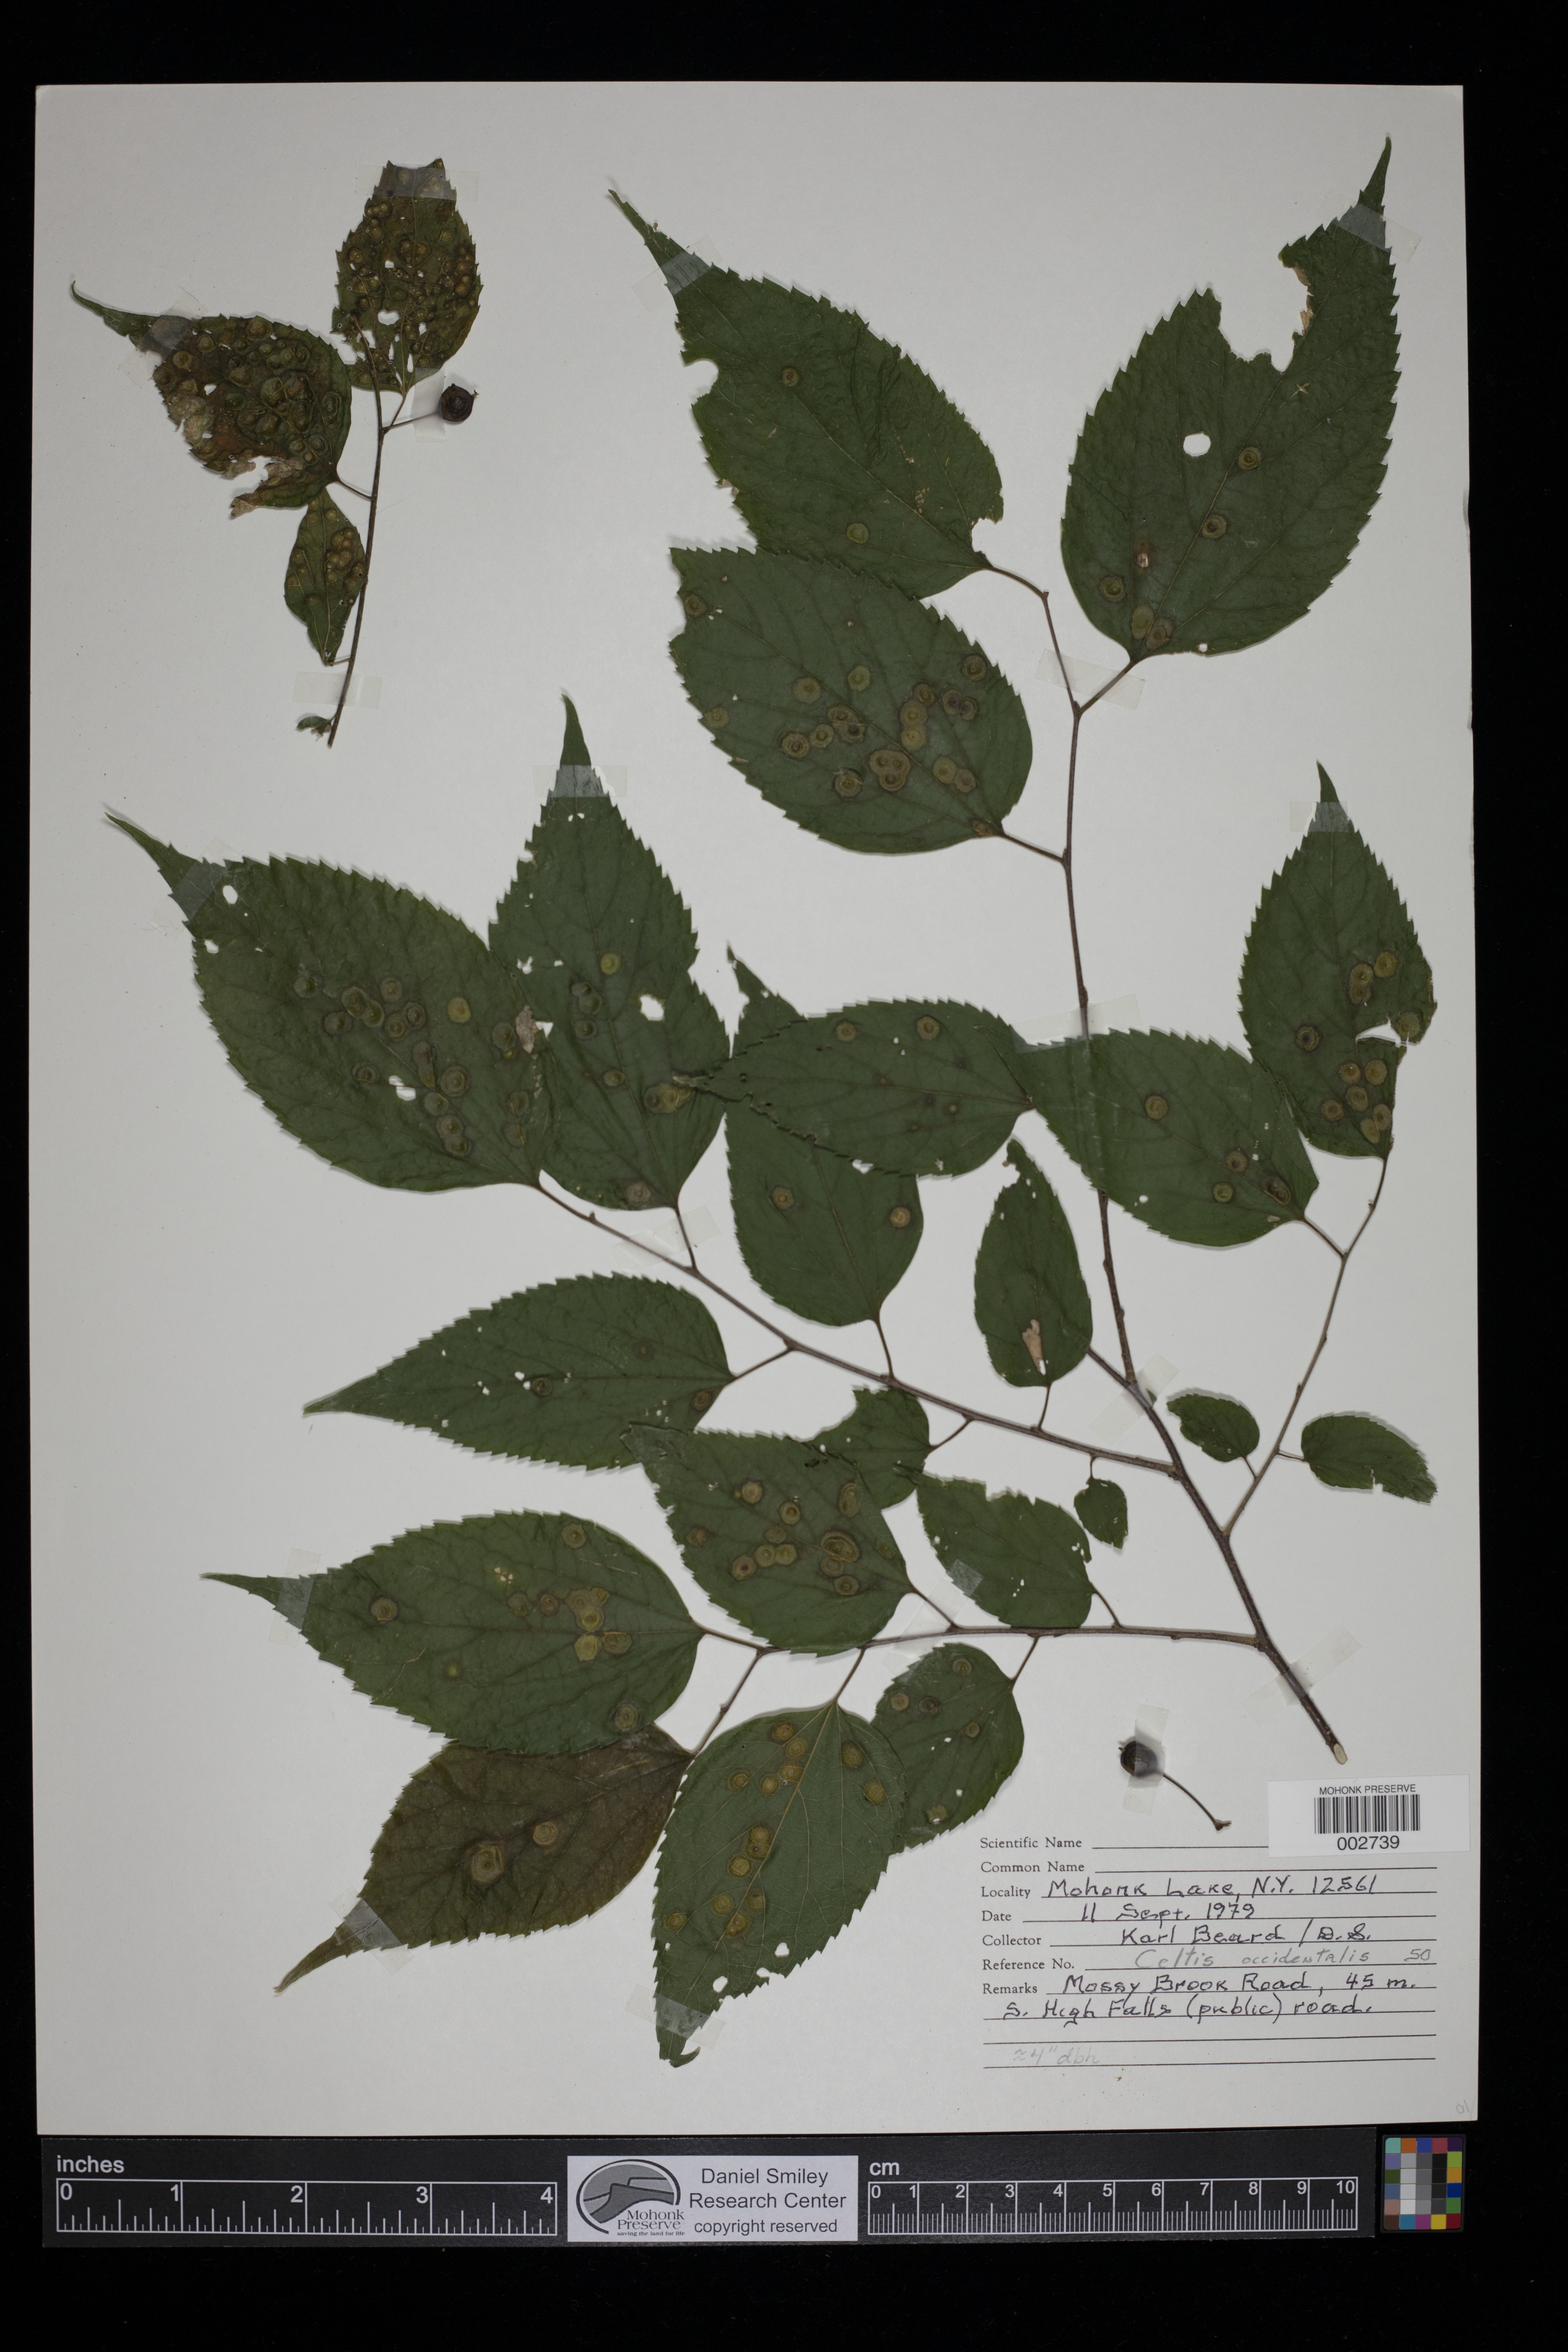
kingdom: Plantae
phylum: Tracheophyta
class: Magnoliopsida
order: Rosales
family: Cannabaceae
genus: Celtis
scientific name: Celtis occidentalis
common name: Common hackberry
